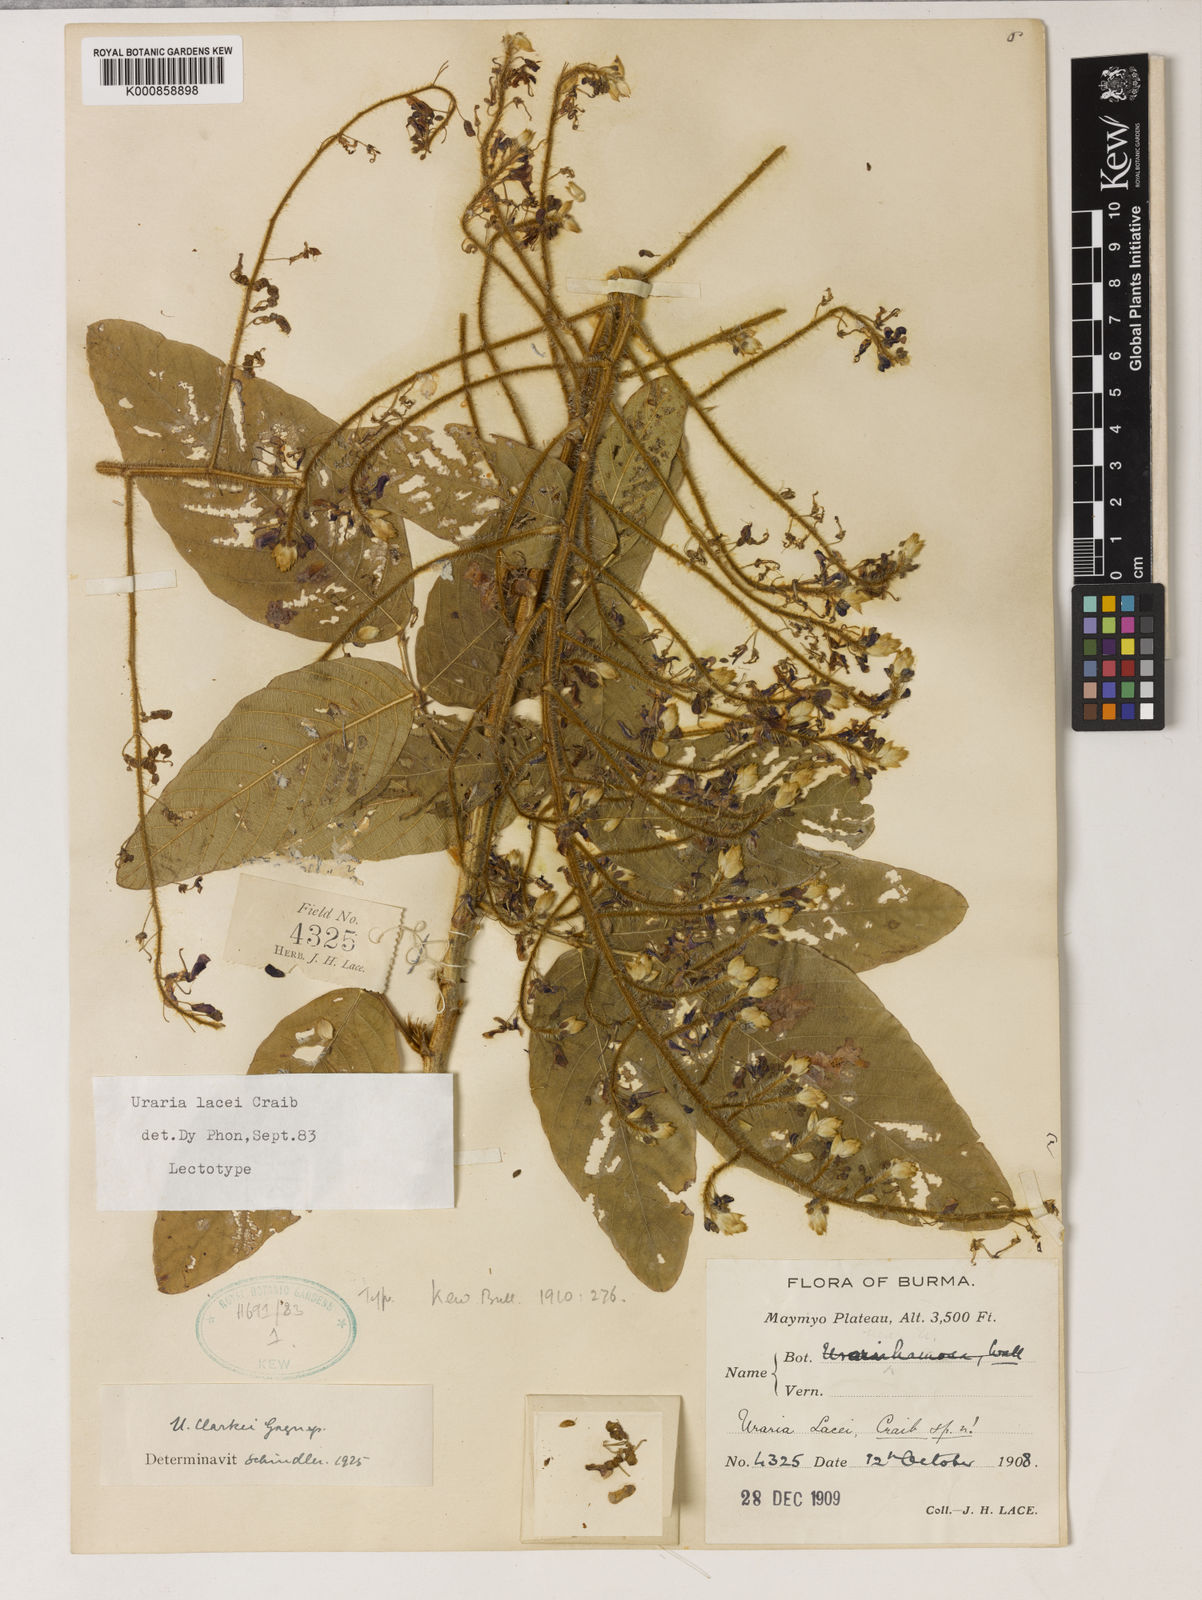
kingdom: Plantae
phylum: Tracheophyta
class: Magnoliopsida
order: Fabales
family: Fabaceae
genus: Uraria
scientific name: Uraria lacei
